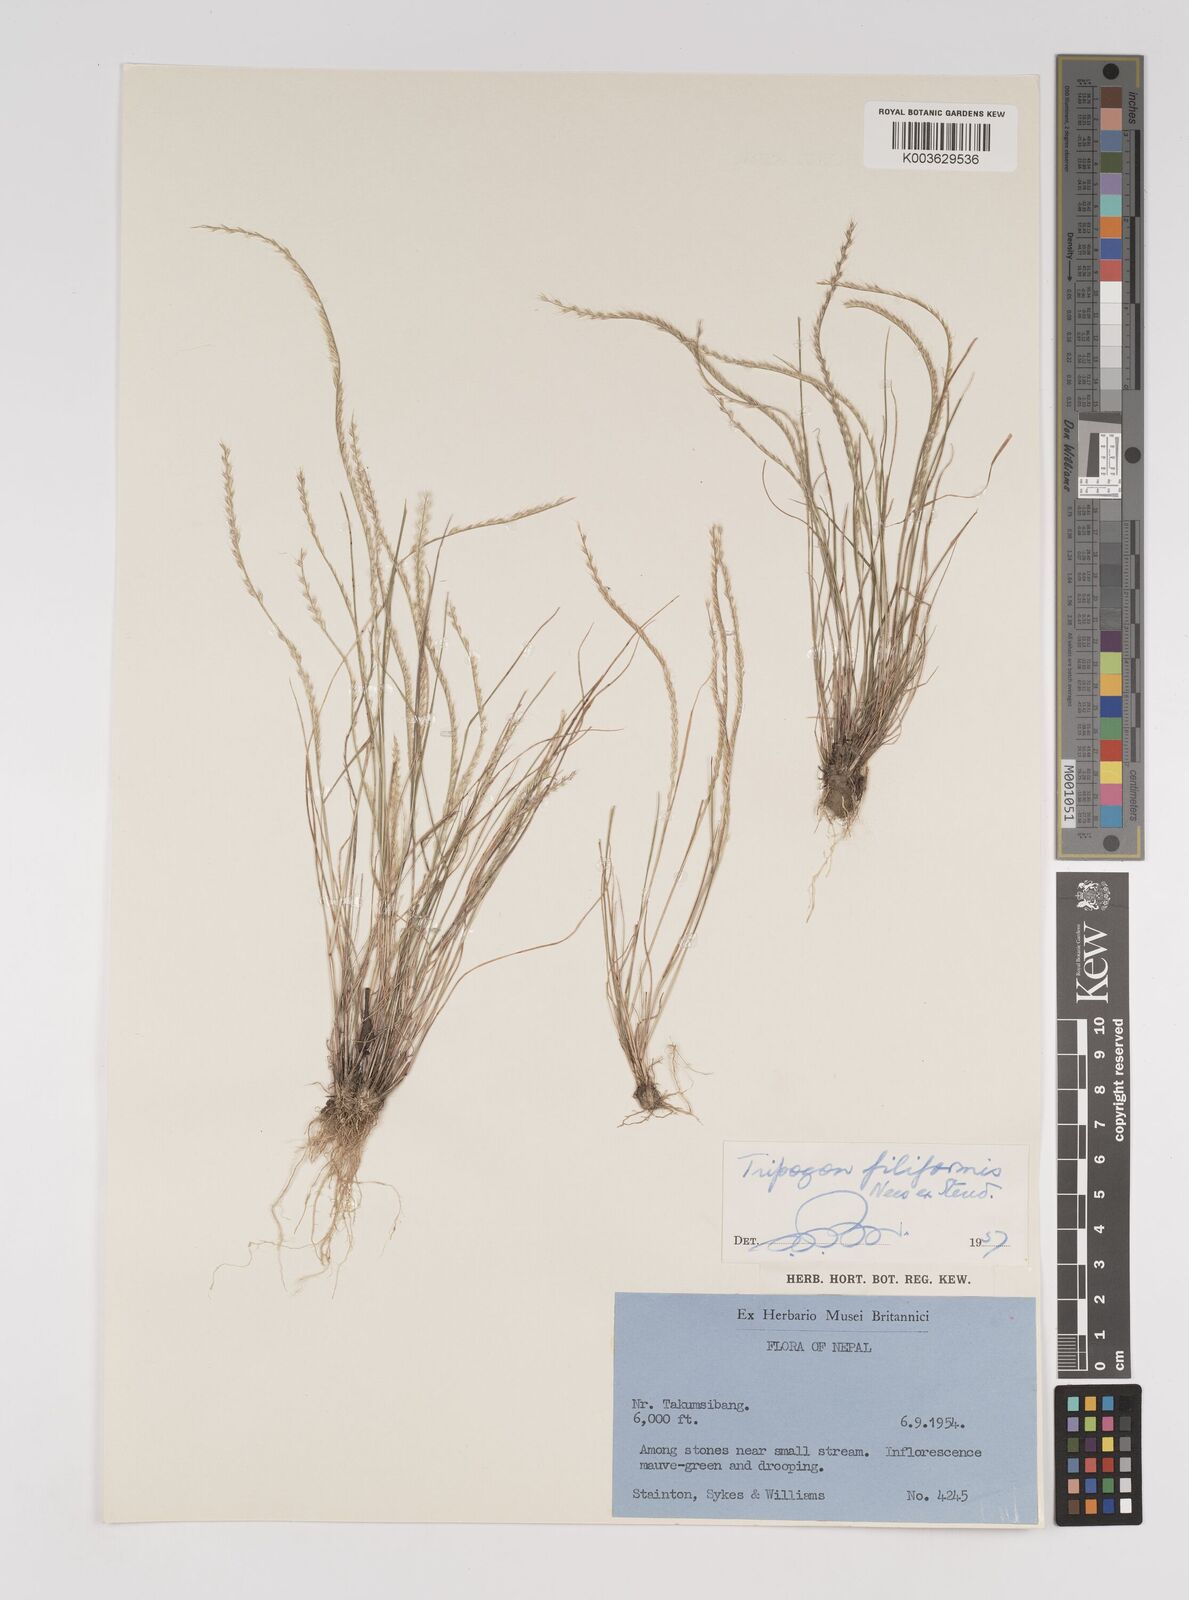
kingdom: Plantae
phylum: Tracheophyta
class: Liliopsida
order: Poales
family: Poaceae
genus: Tripogon
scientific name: Tripogon filiformis
